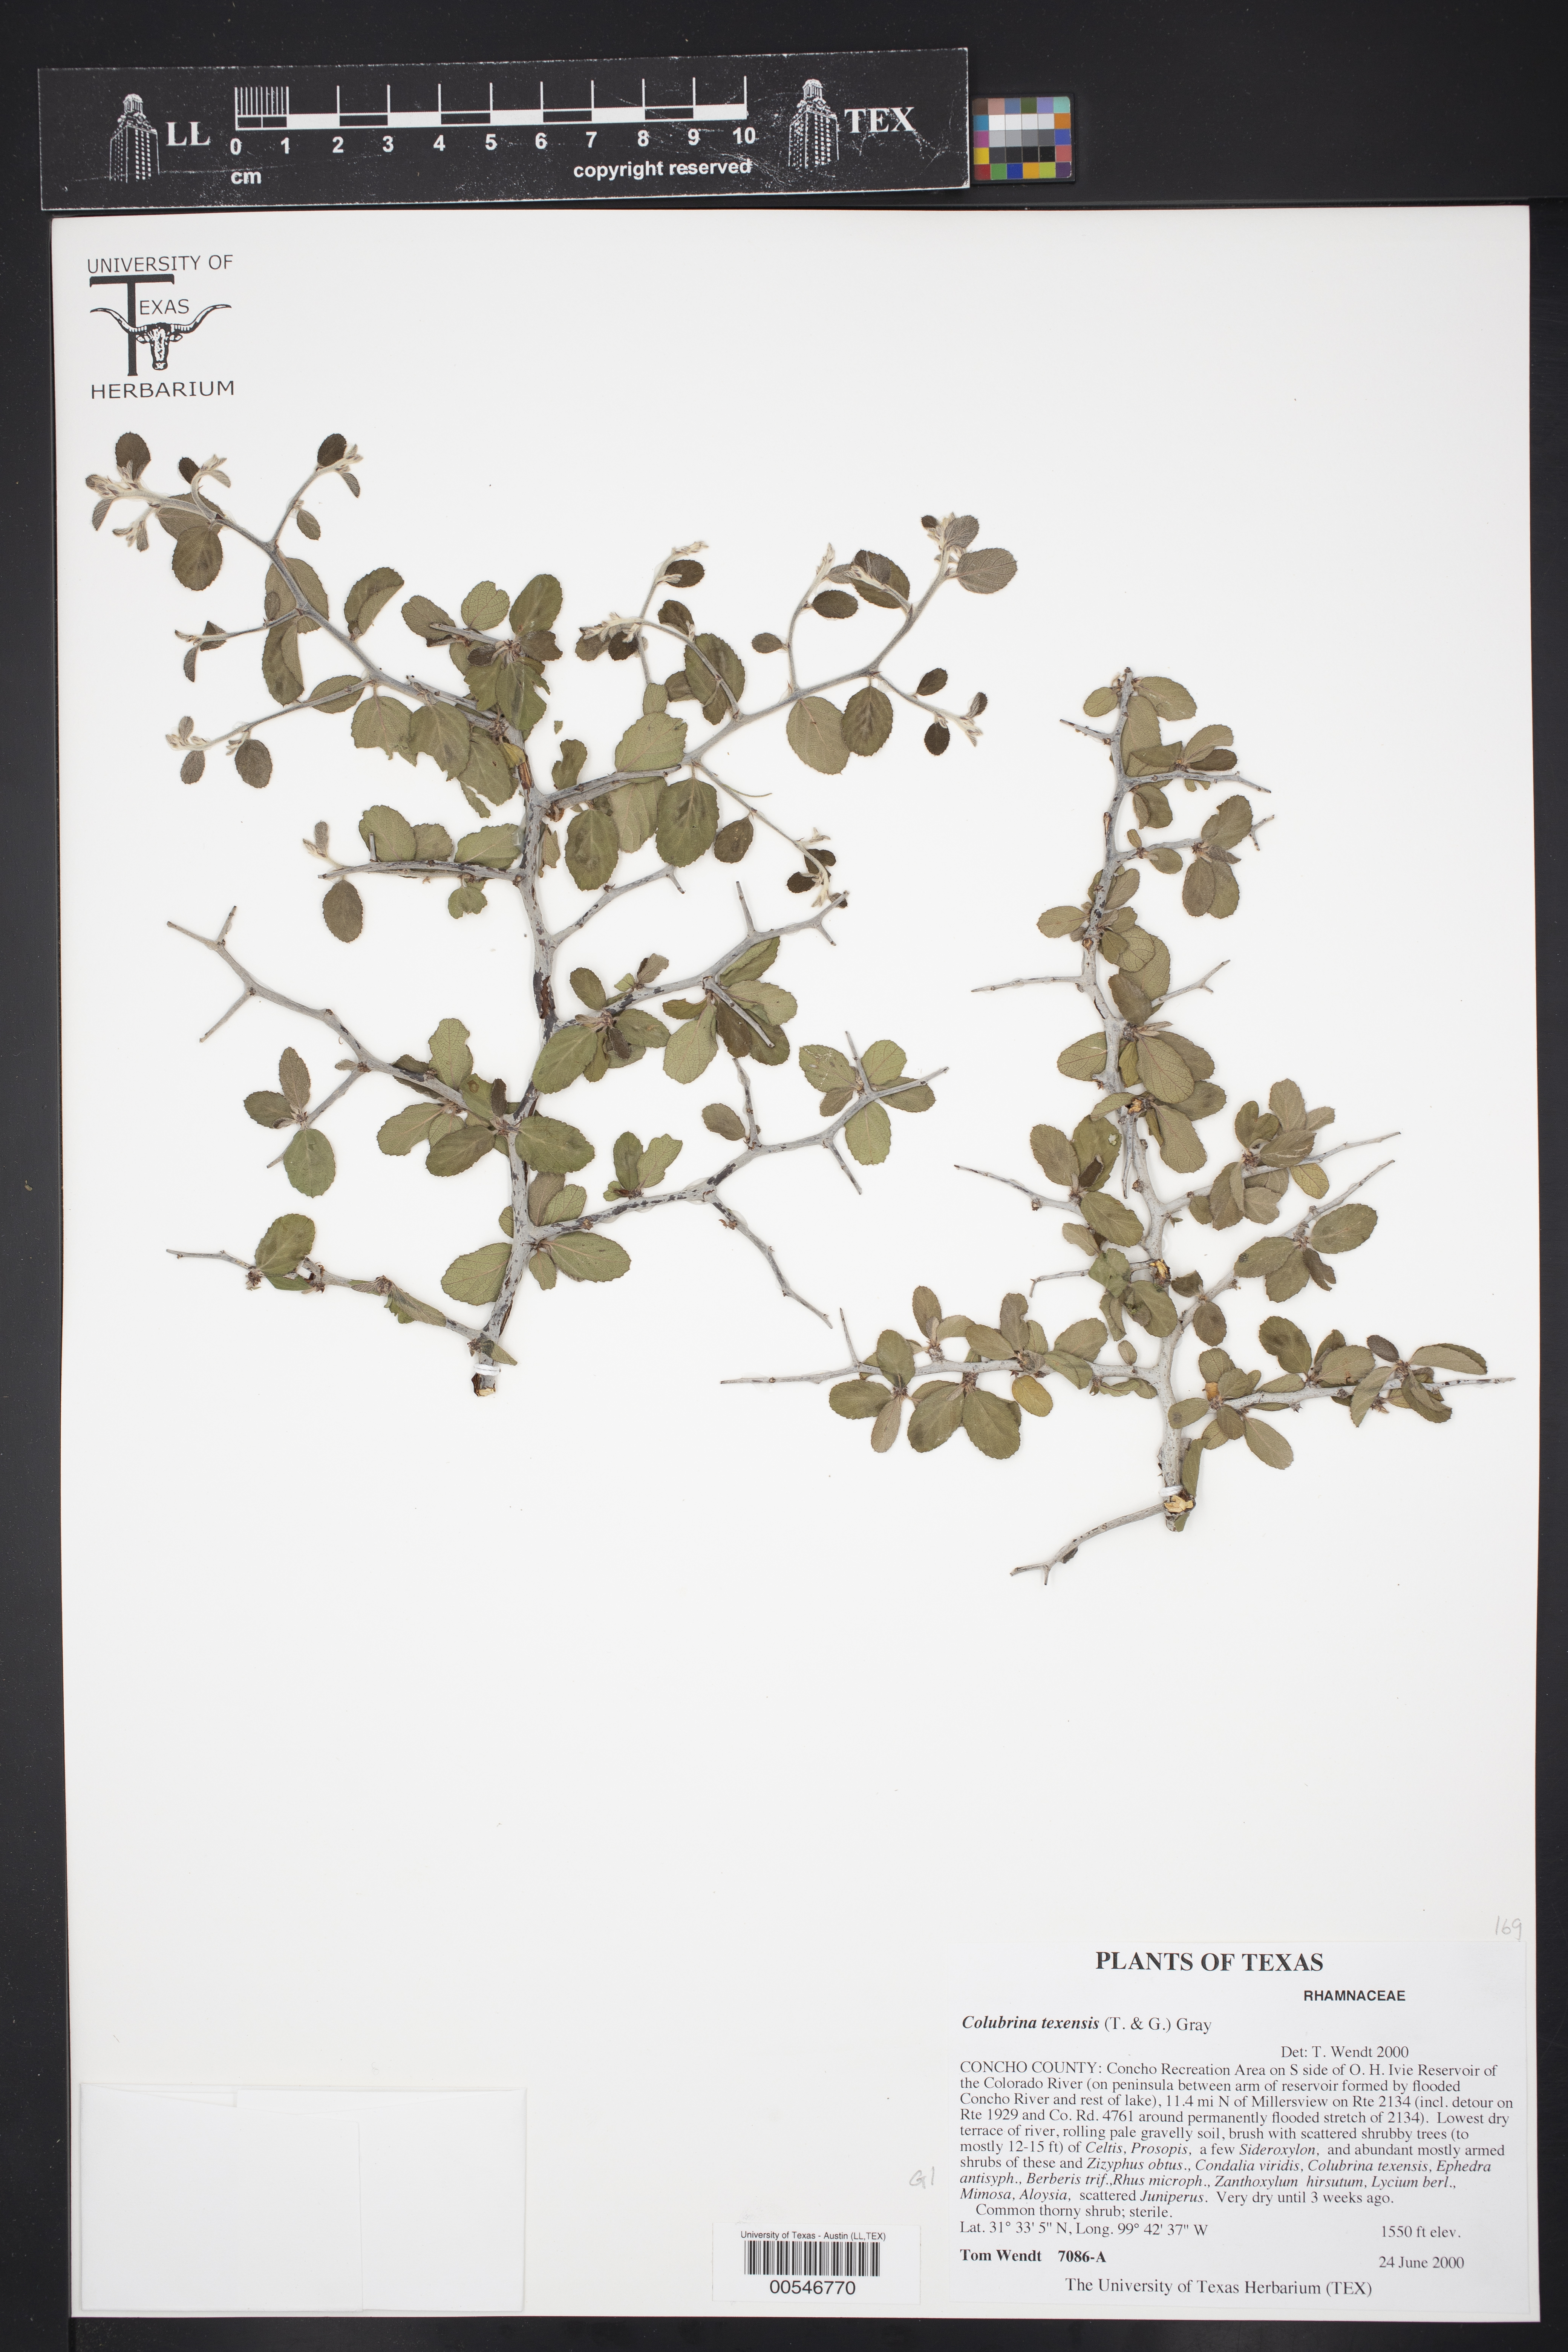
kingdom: Plantae
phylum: Tracheophyta
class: Magnoliopsida
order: Rosales
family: Rhamnaceae
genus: Colubrina
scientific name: Colubrina texensis
